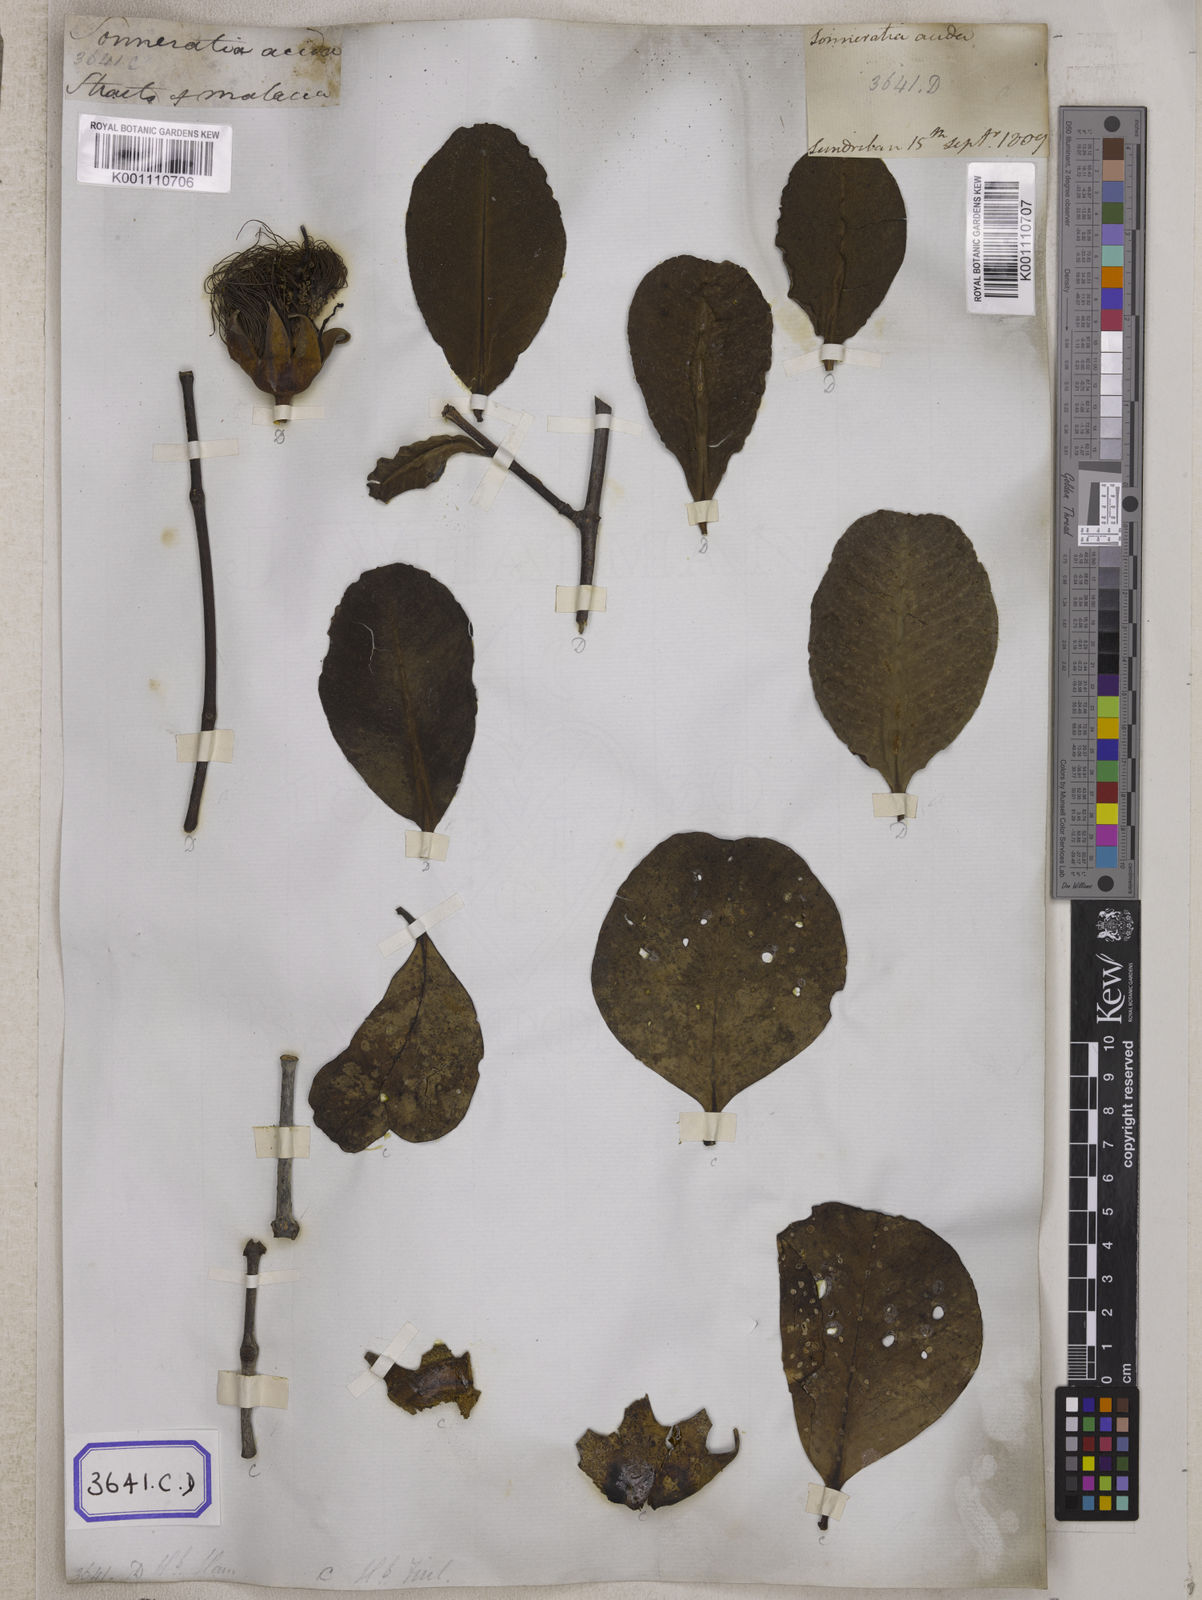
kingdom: Plantae
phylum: Tracheophyta
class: Magnoliopsida
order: Myrtales
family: Lythraceae
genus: Sonneratia
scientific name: Sonneratia caseolaris
